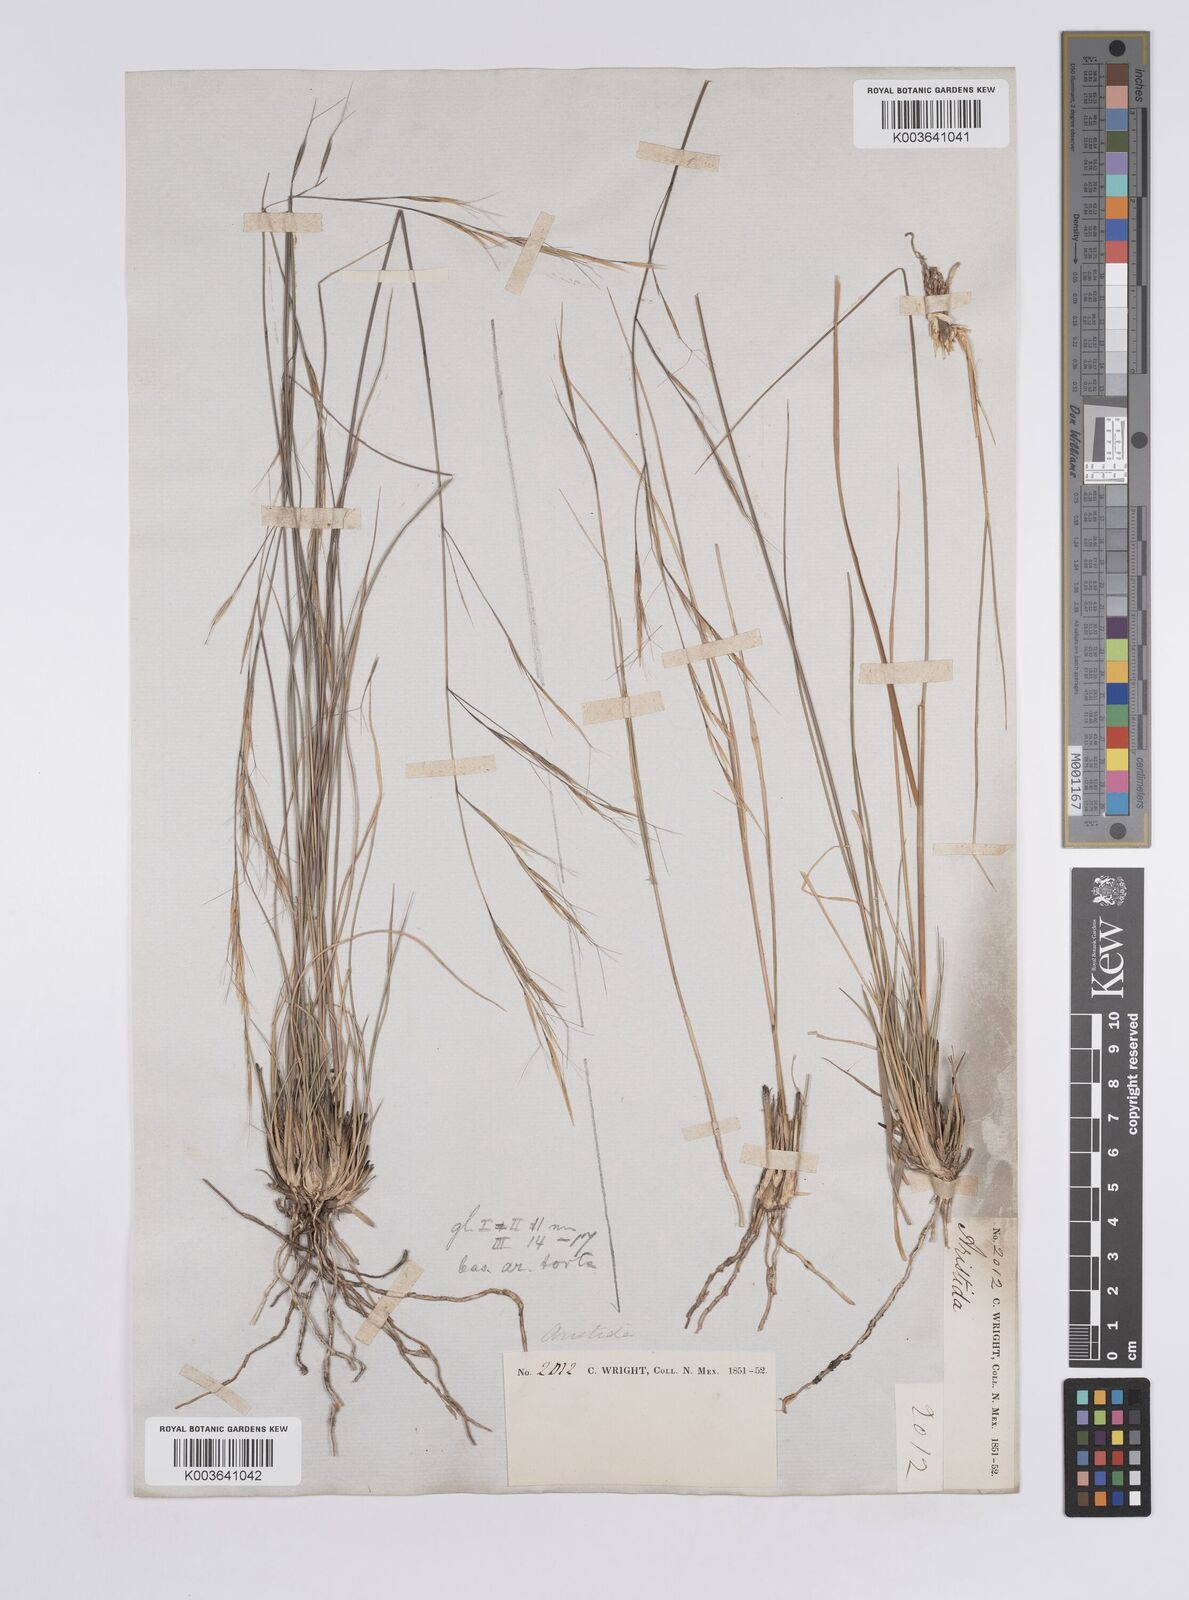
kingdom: Plantae
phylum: Tracheophyta
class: Liliopsida
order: Poales
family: Poaceae
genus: Aristida
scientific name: Aristida arizonica
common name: Arizona threeawn
